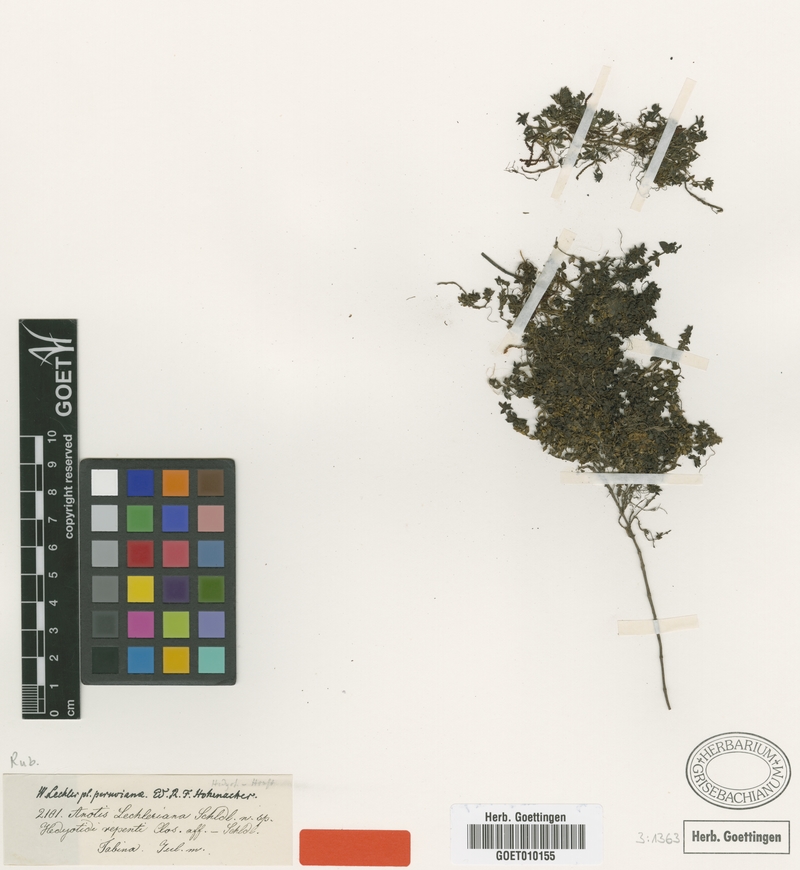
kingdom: Plantae
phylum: Tracheophyta
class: Magnoliopsida
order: Gentianales
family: Rubiaceae
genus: Oldenlandia
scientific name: Oldenlandia lechleriana
